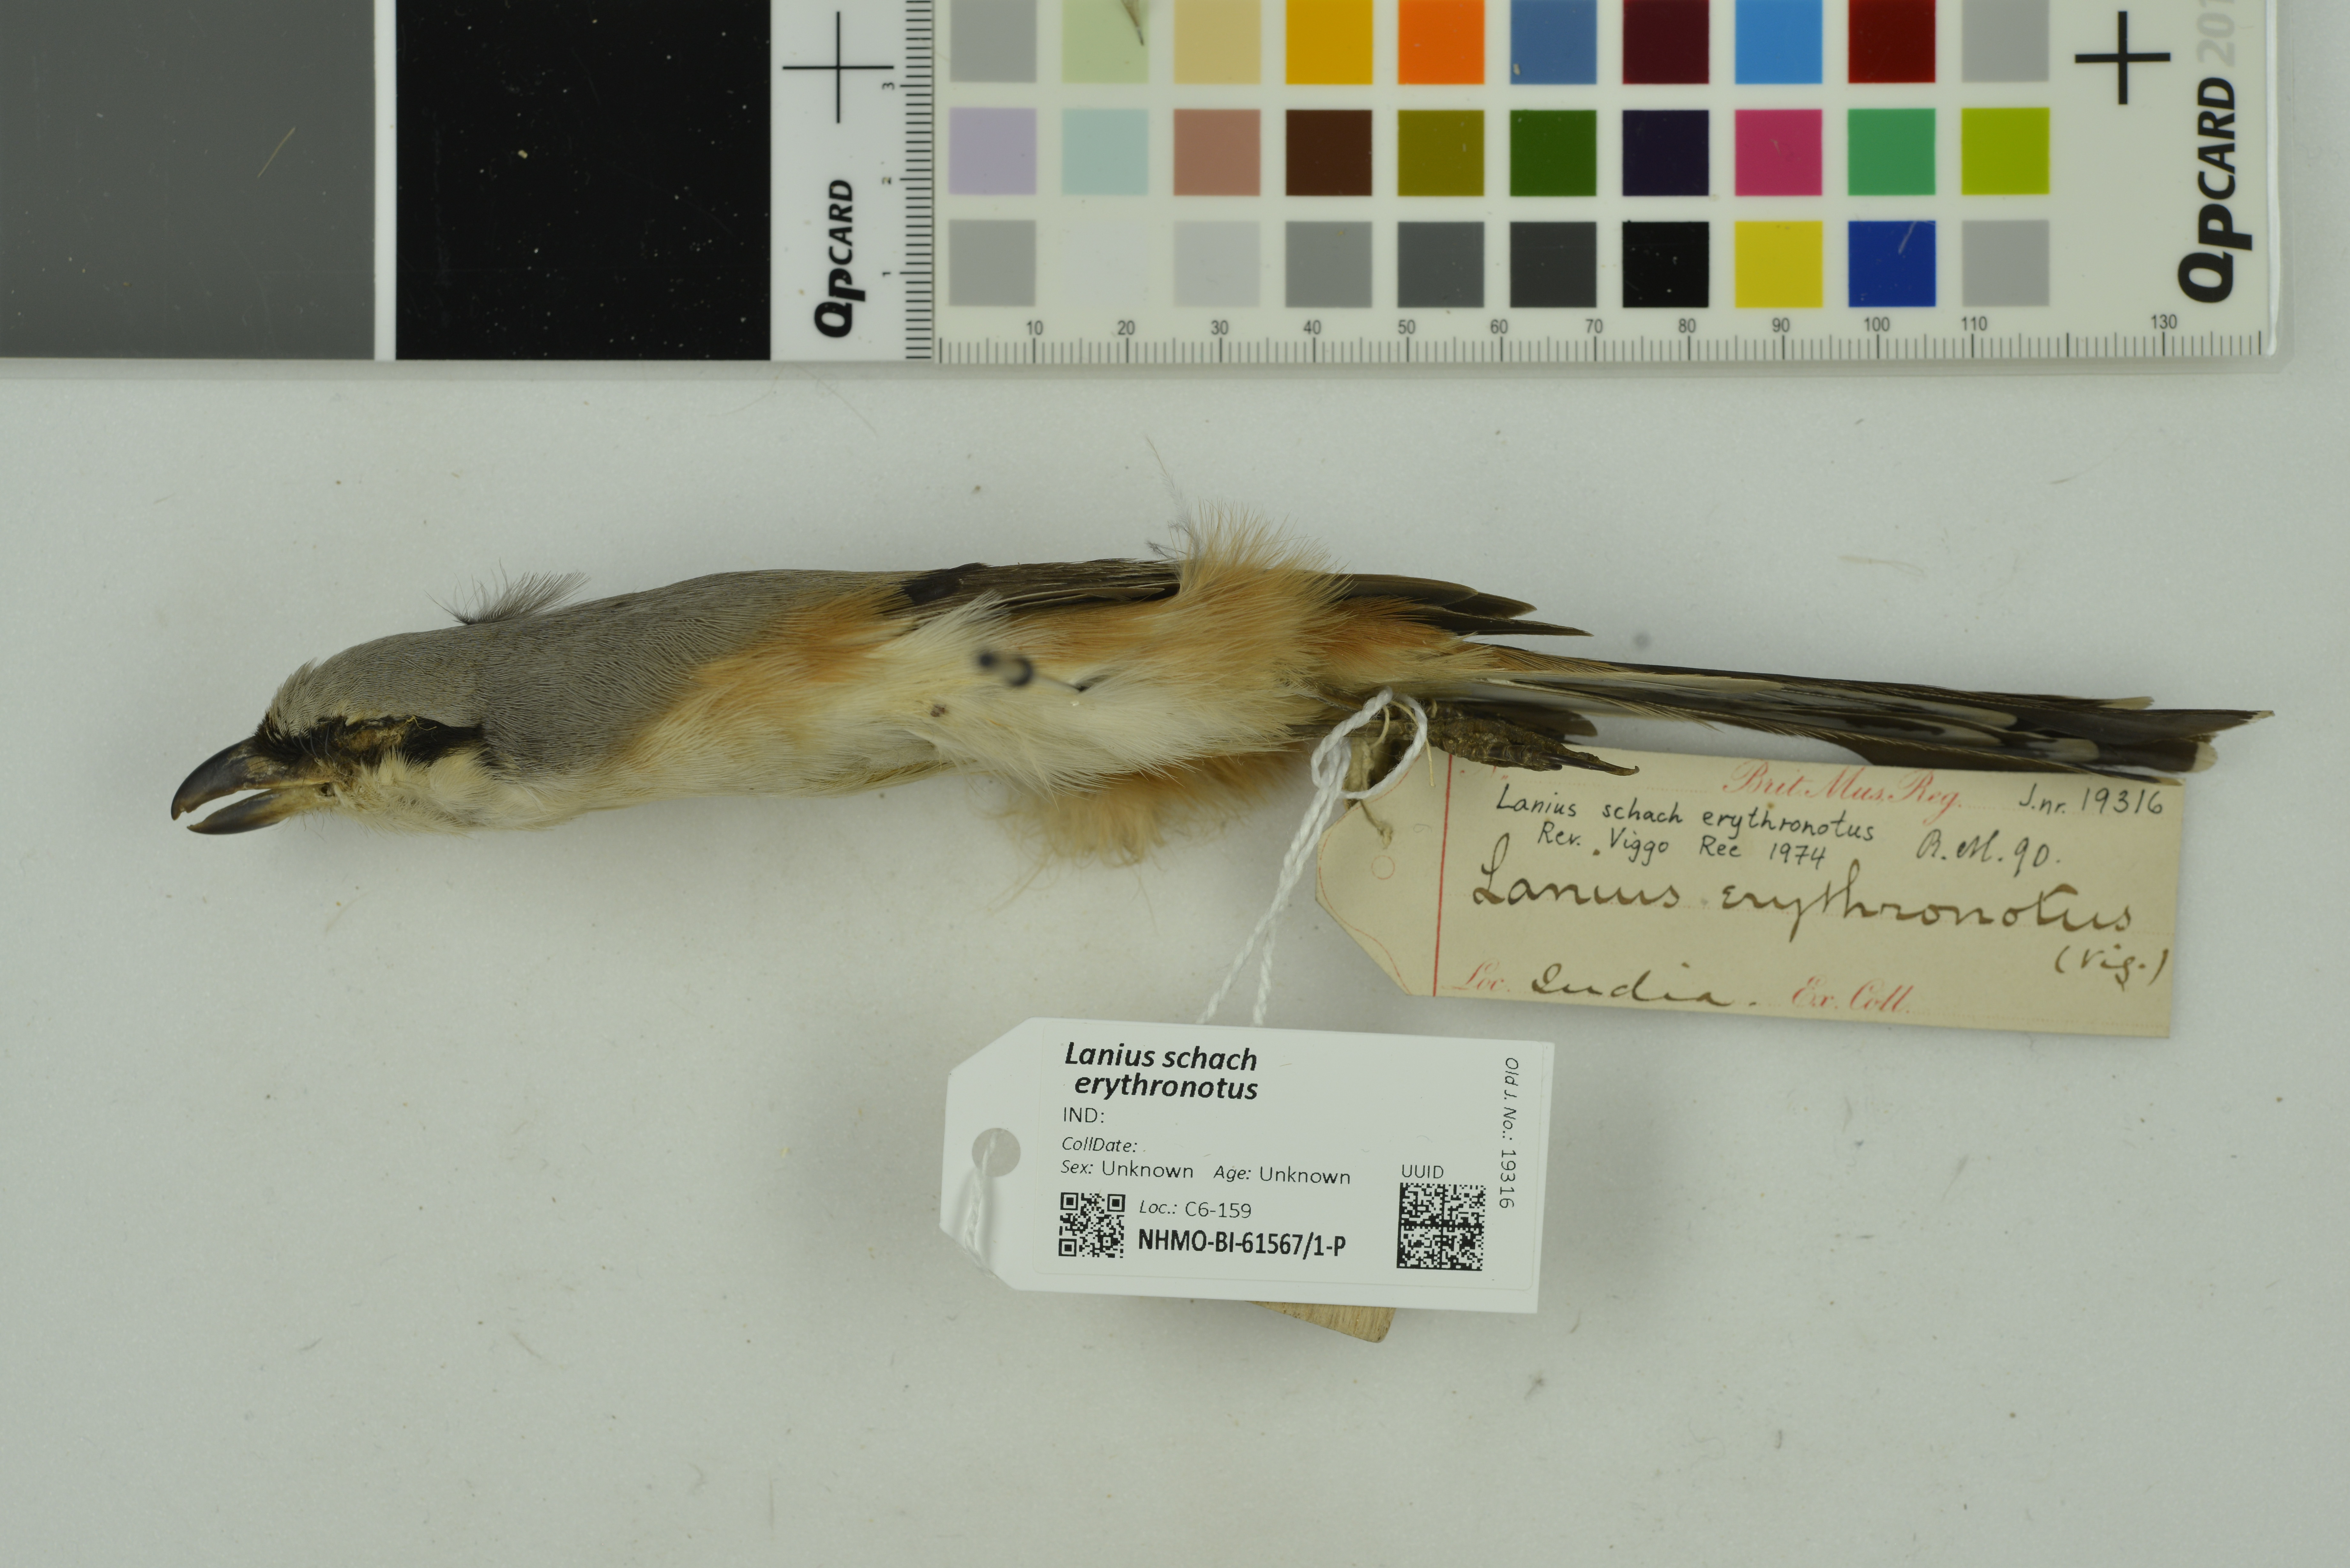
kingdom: Animalia
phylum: Chordata
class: Aves
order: Passeriformes
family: Laniidae
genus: Lanius
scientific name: Lanius schach
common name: Long-tailed shrike
